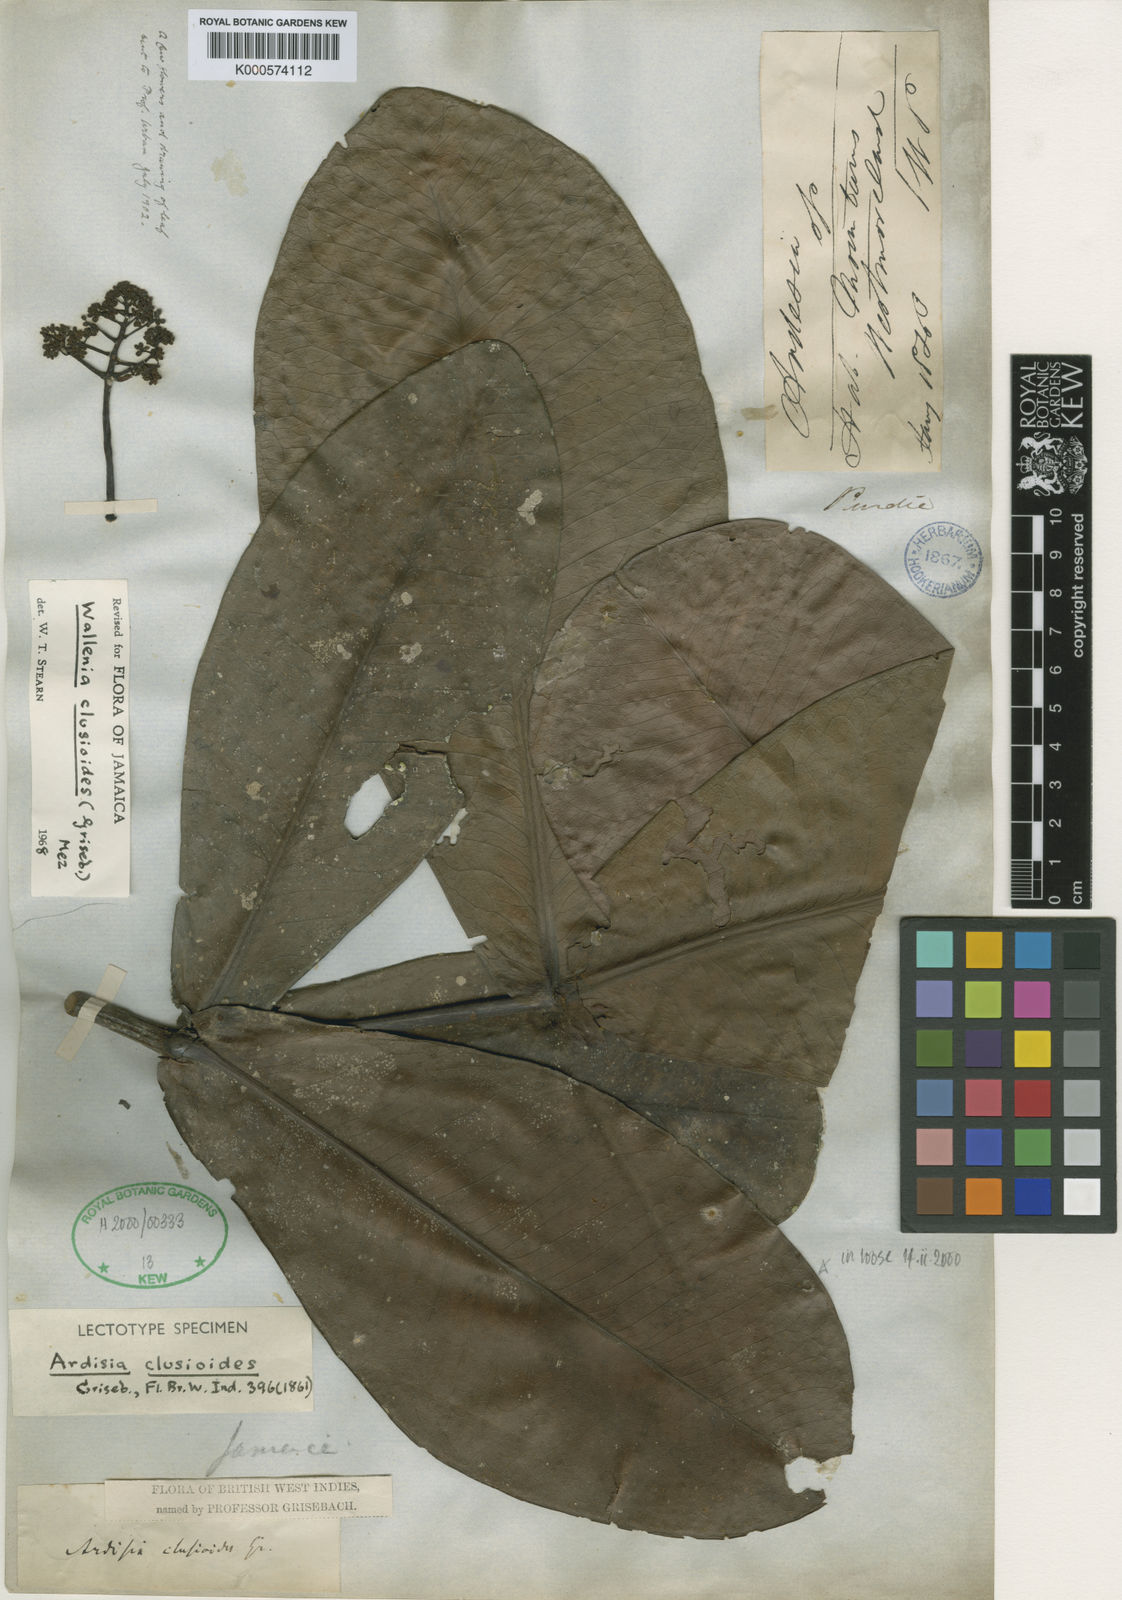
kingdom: Plantae
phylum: Tracheophyta
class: Magnoliopsida
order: Ericales
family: Primulaceae
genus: Wallenia
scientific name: Wallenia clusioides
